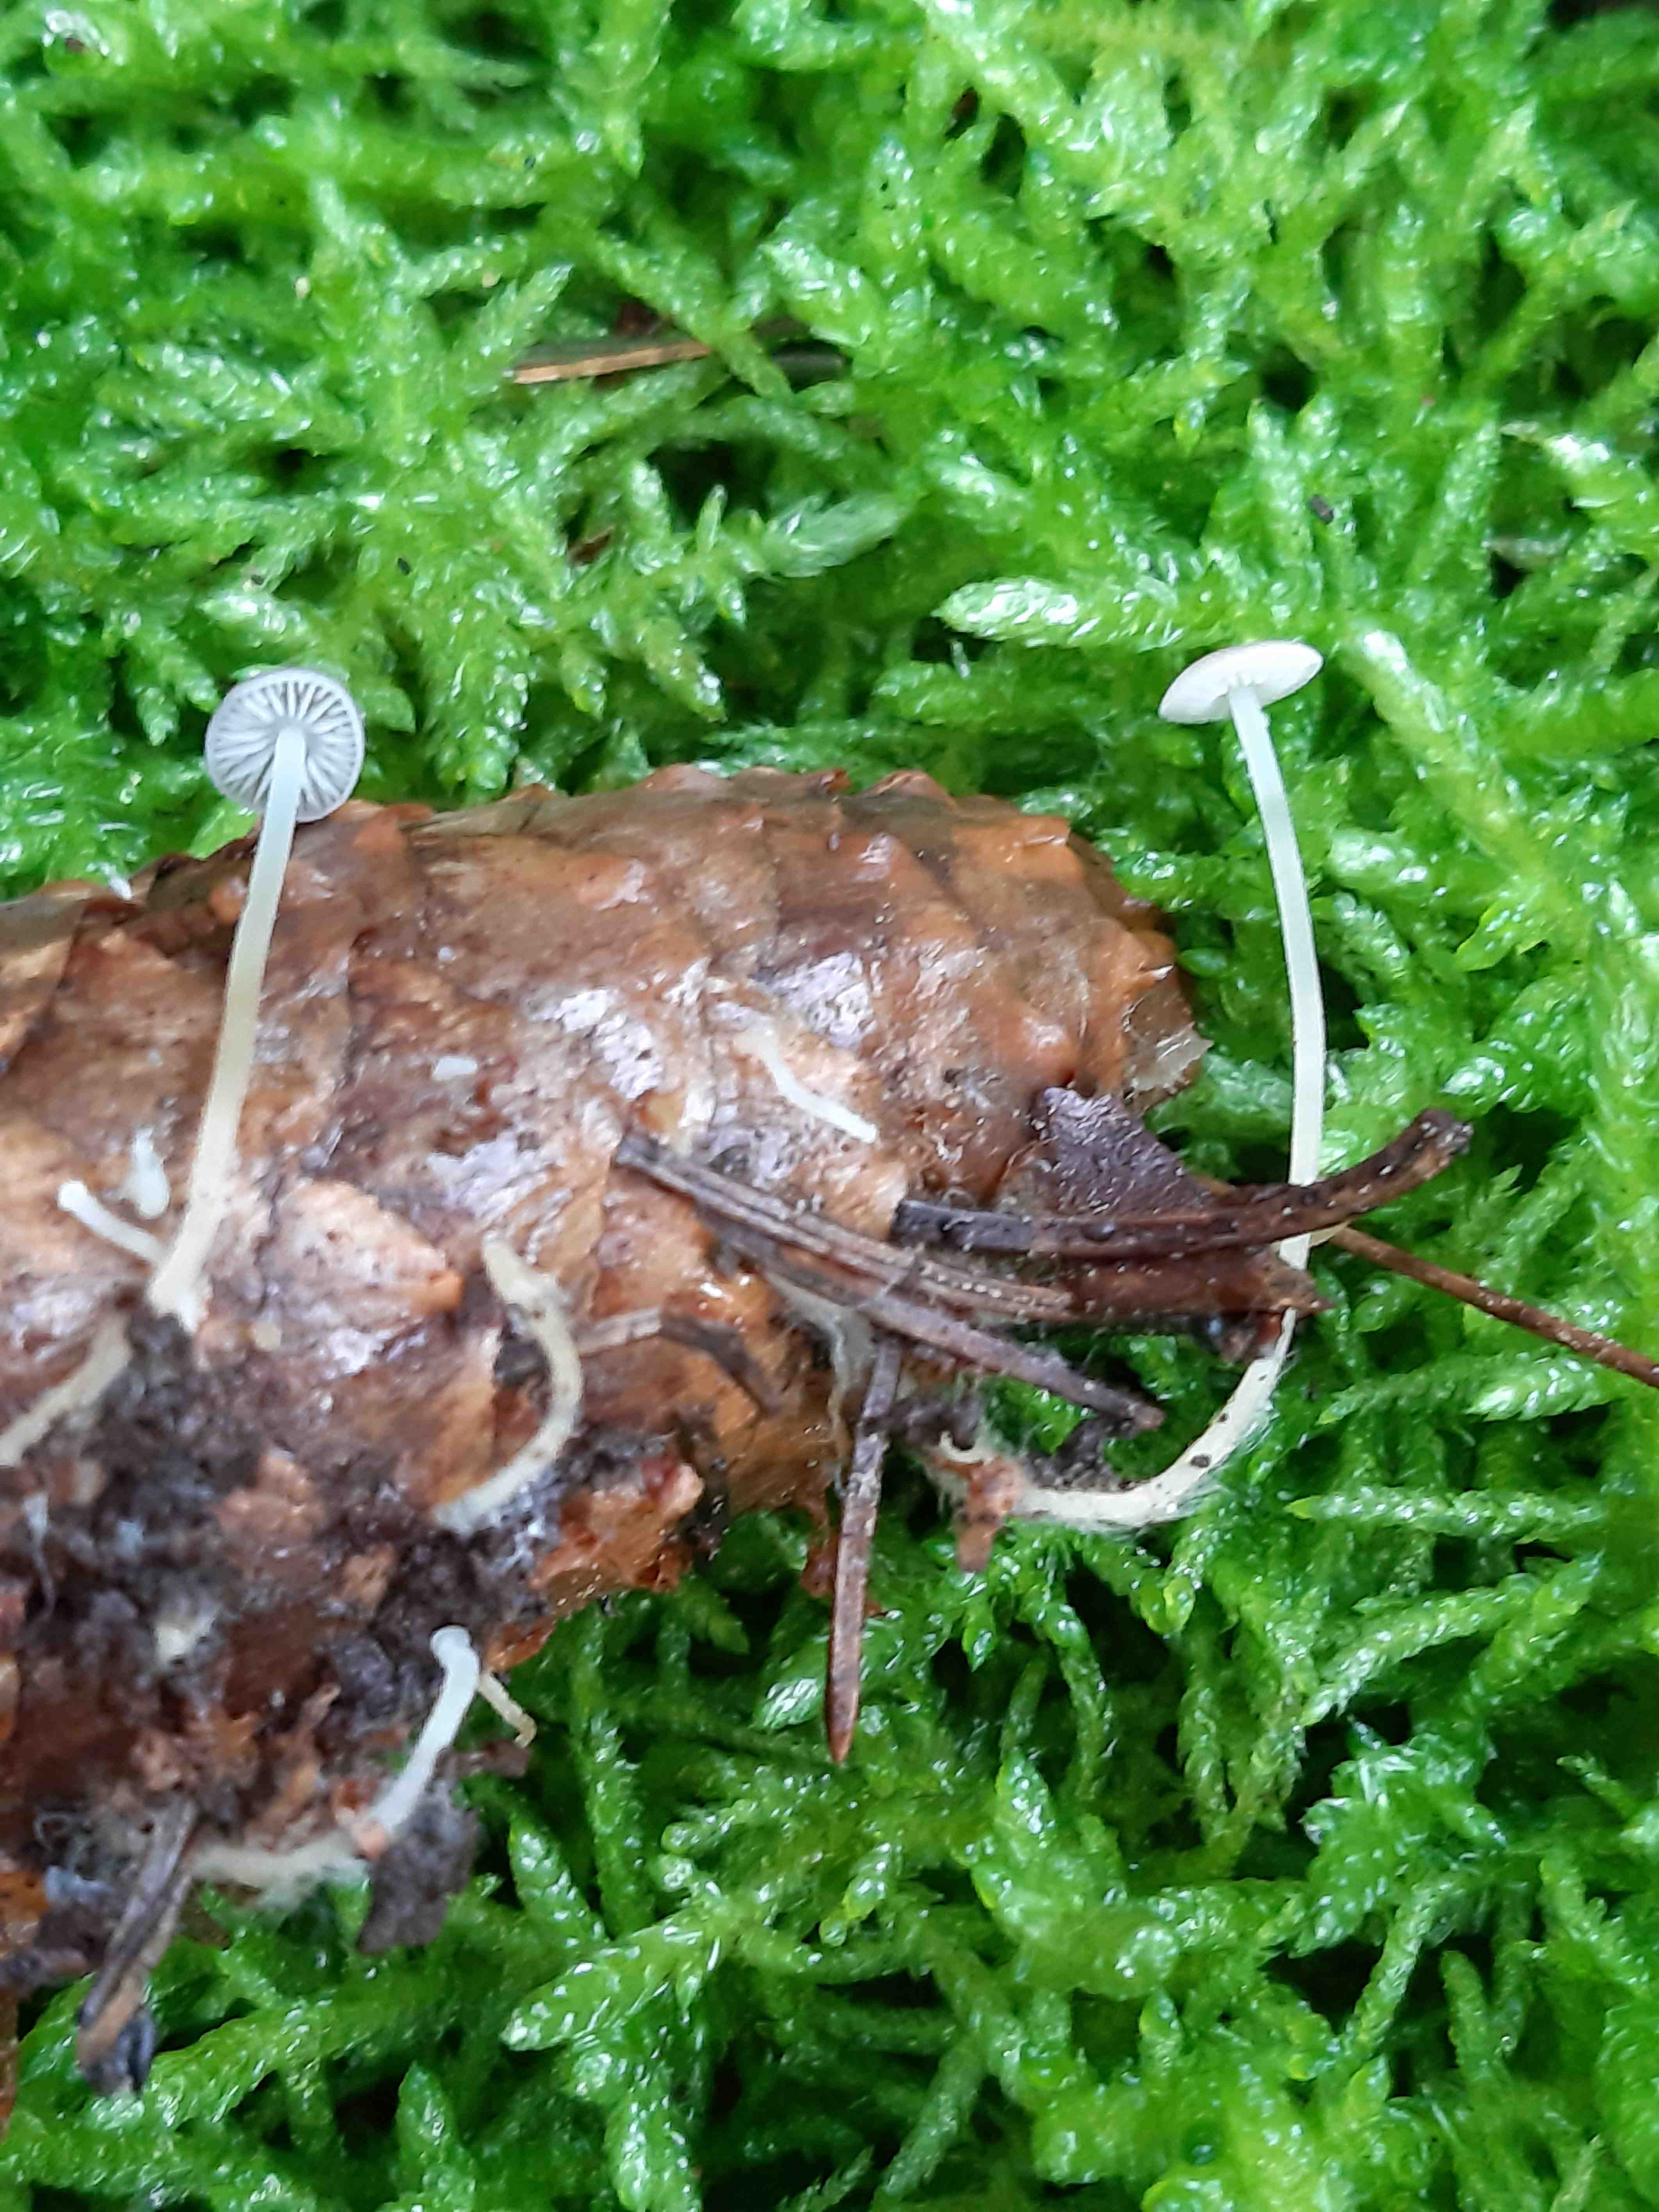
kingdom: Fungi
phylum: Basidiomycota
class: Agaricomycetes
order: Agaricales
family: Physalacriaceae
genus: Strobilurus
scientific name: Strobilurus esculentus
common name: gran-koglehat
